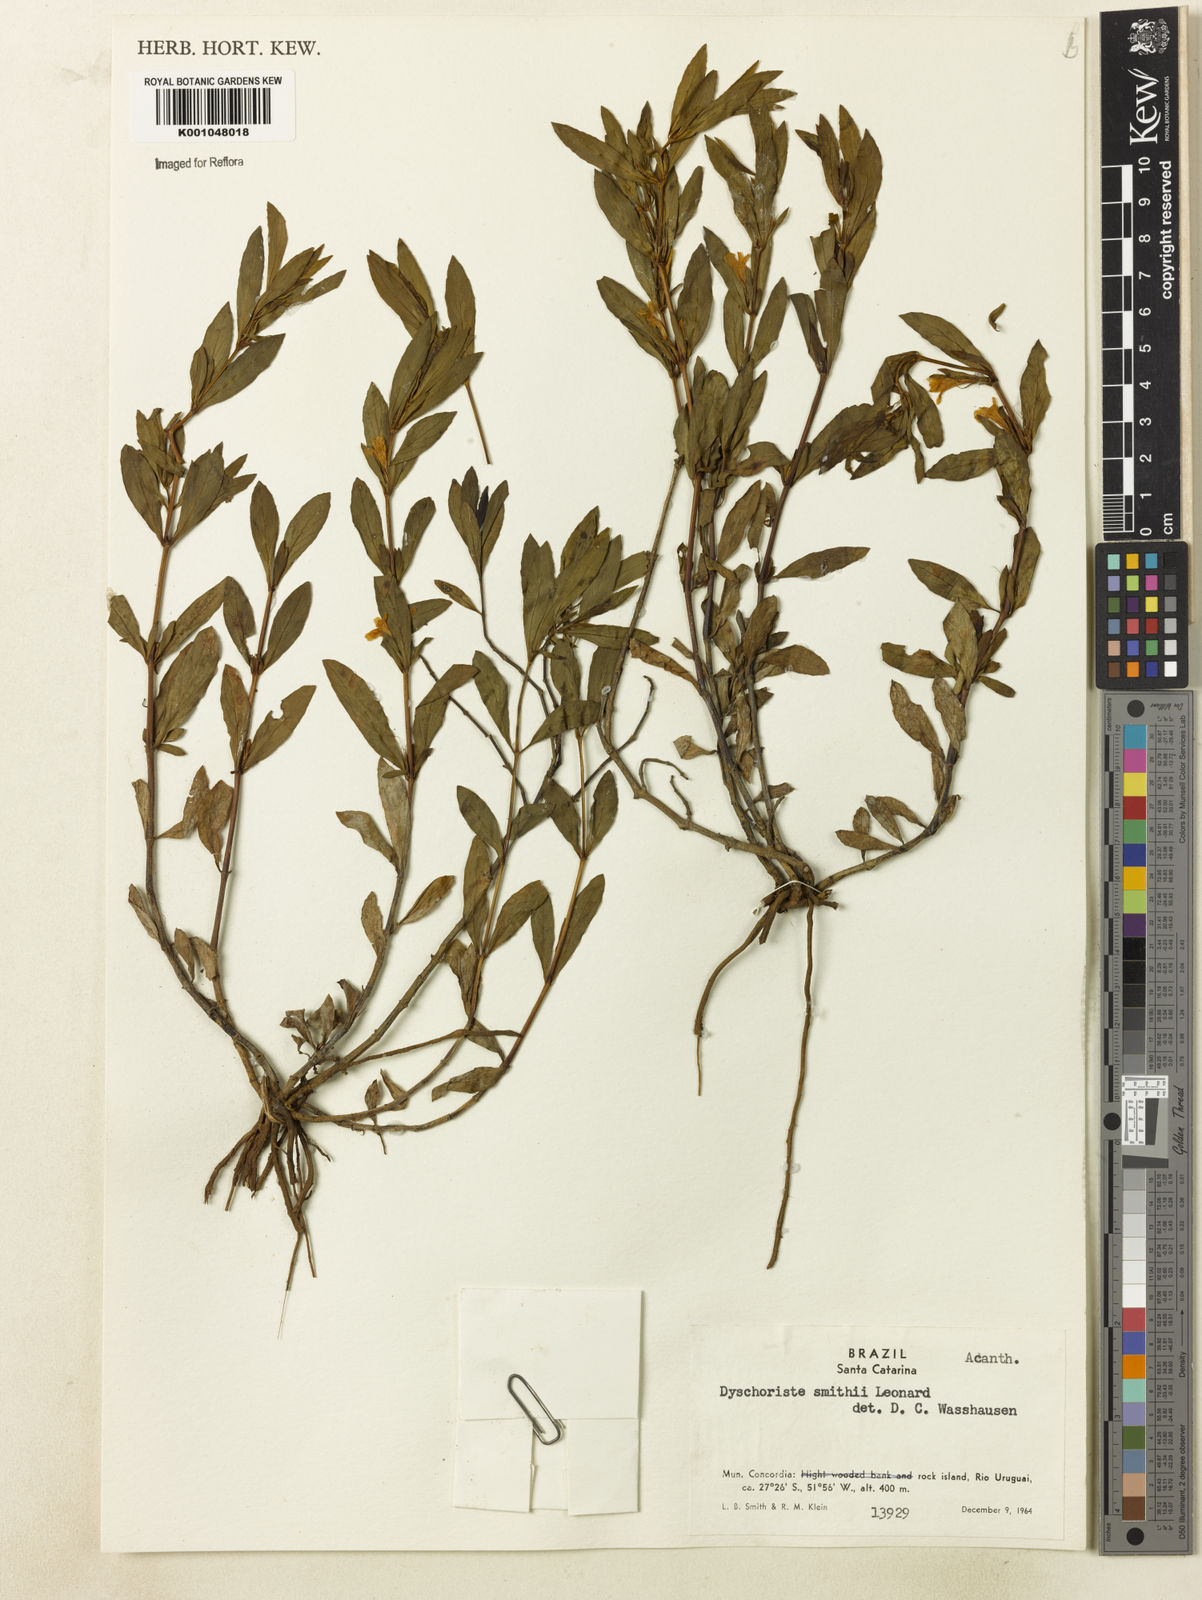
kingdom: Plantae
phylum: Tracheophyta
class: Magnoliopsida
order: Lamiales
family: Acanthaceae
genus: Dyschoriste
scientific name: Dyschoriste smithii
